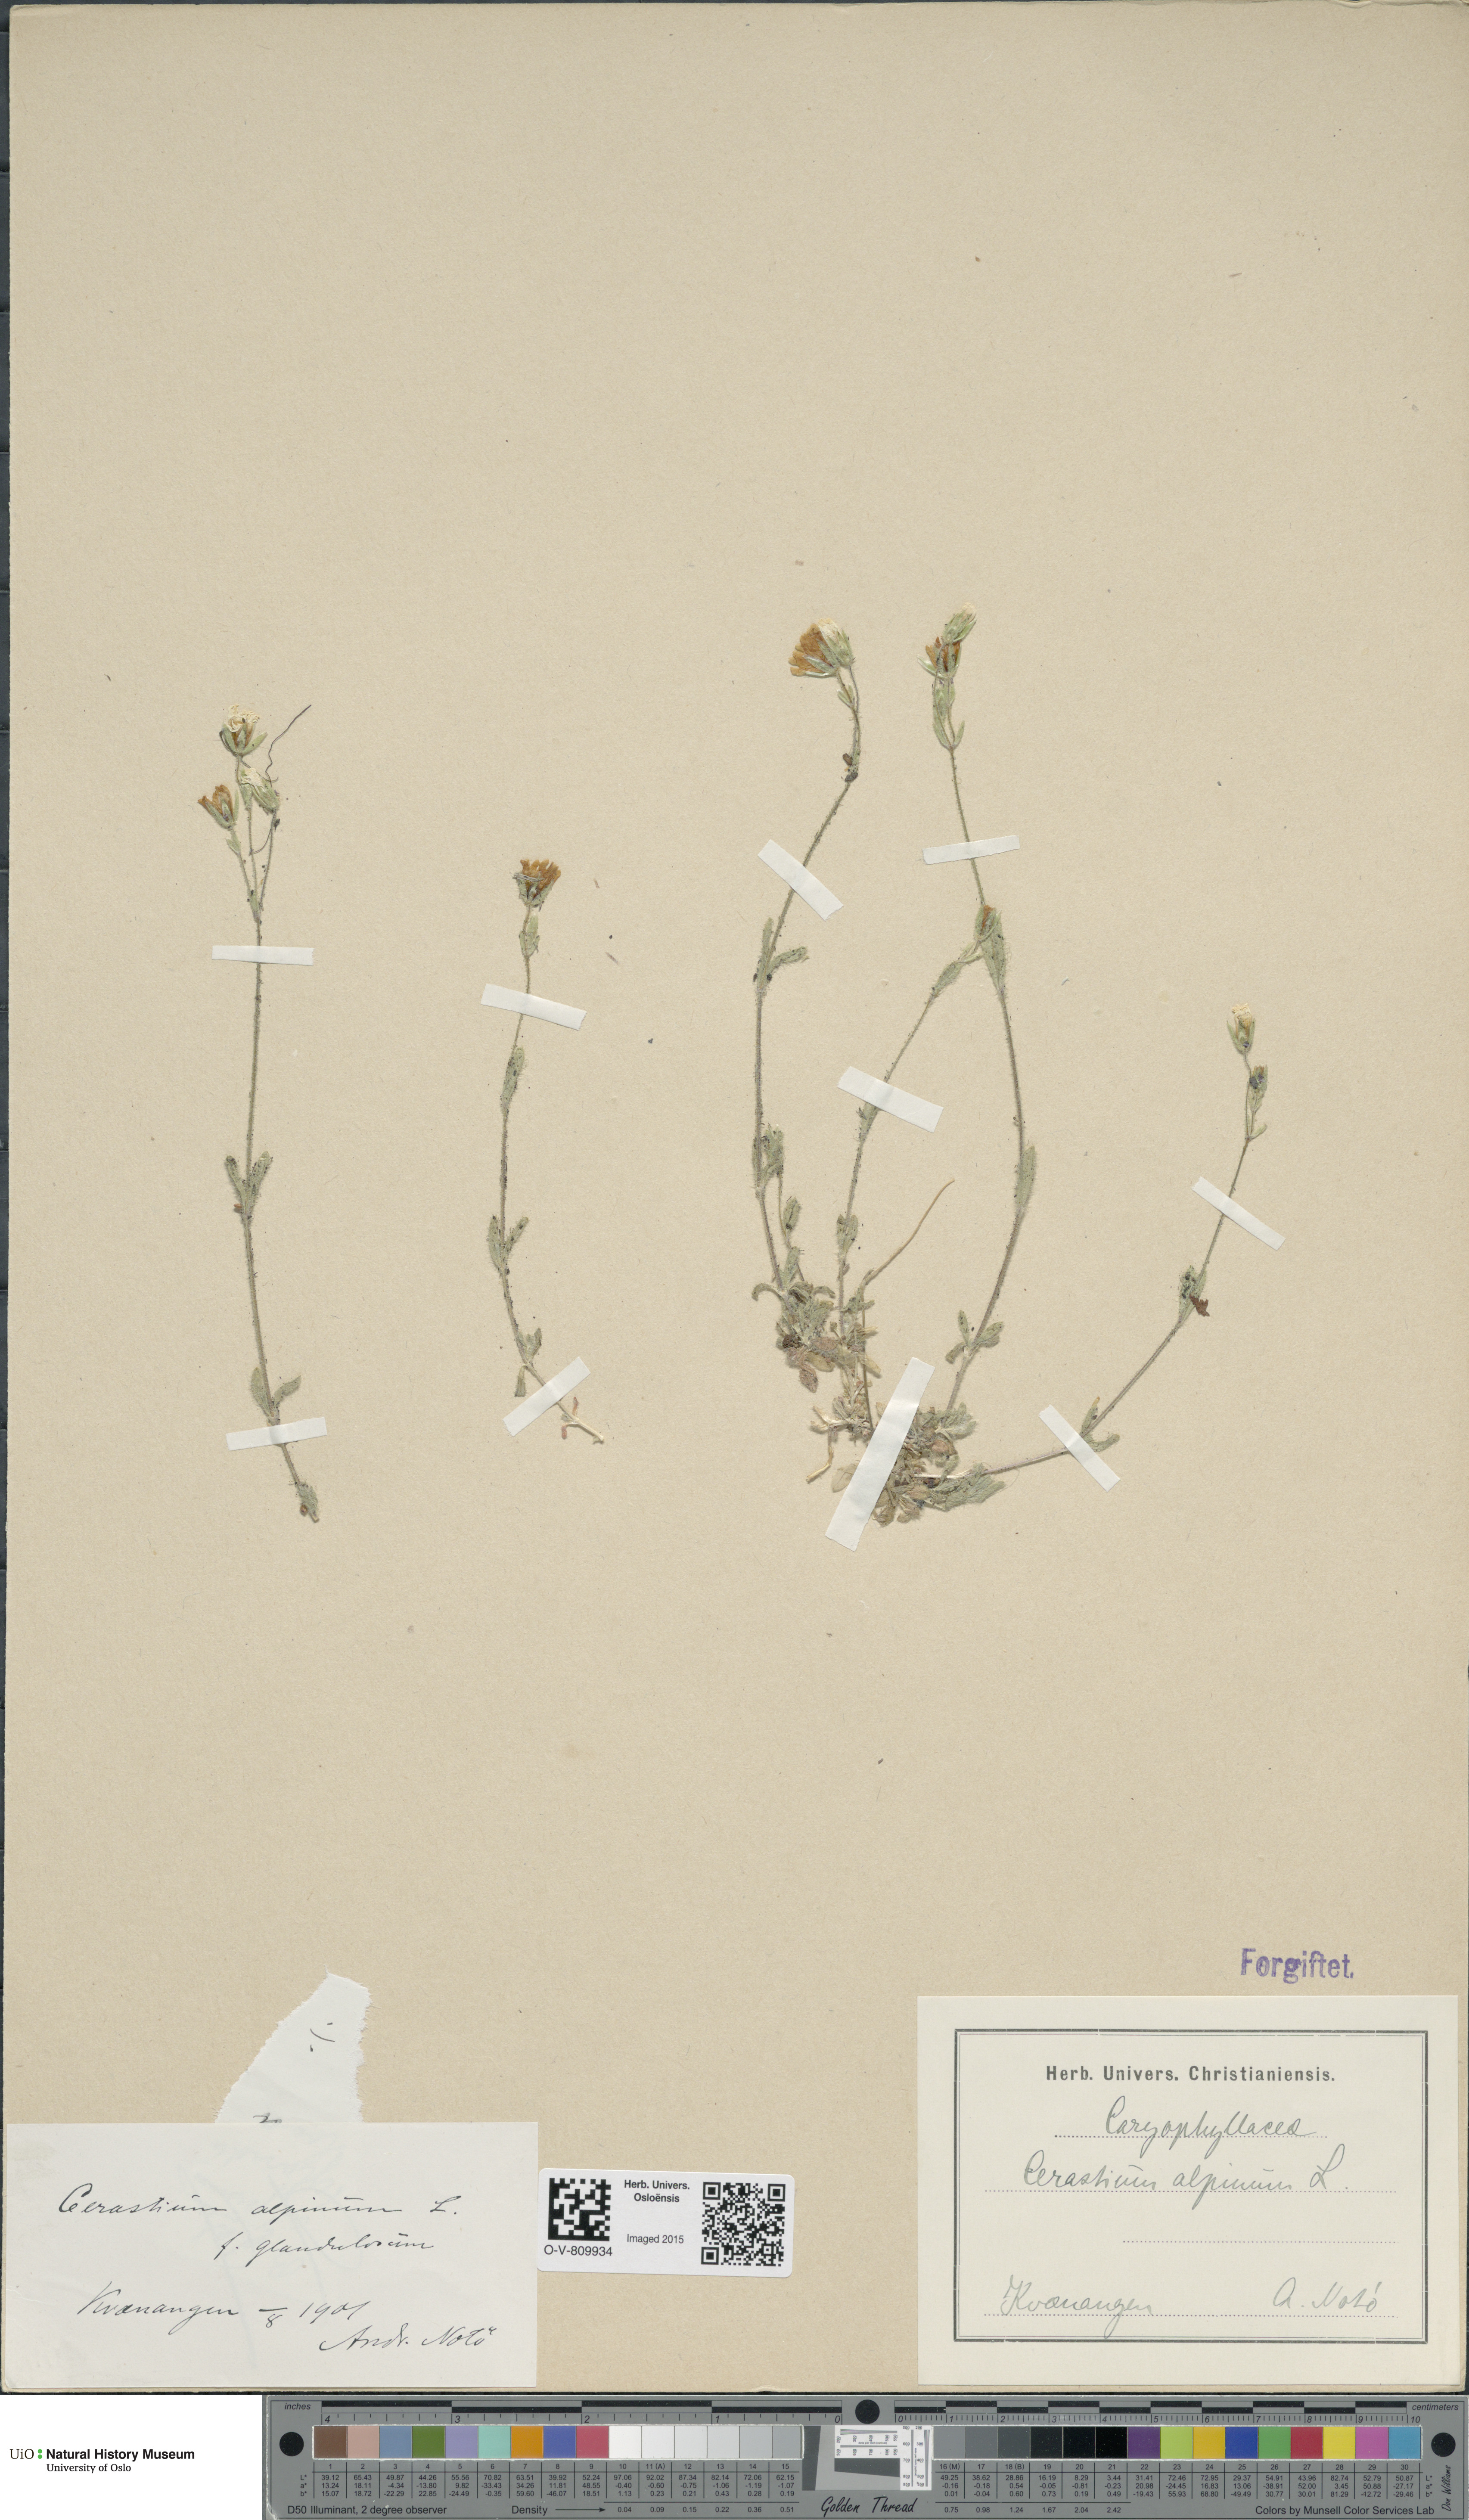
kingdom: Plantae
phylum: Tracheophyta
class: Magnoliopsida
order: Caryophyllales
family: Caryophyllaceae
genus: Cerastium
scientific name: Cerastium alpinum
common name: Alpine mouse-ear
